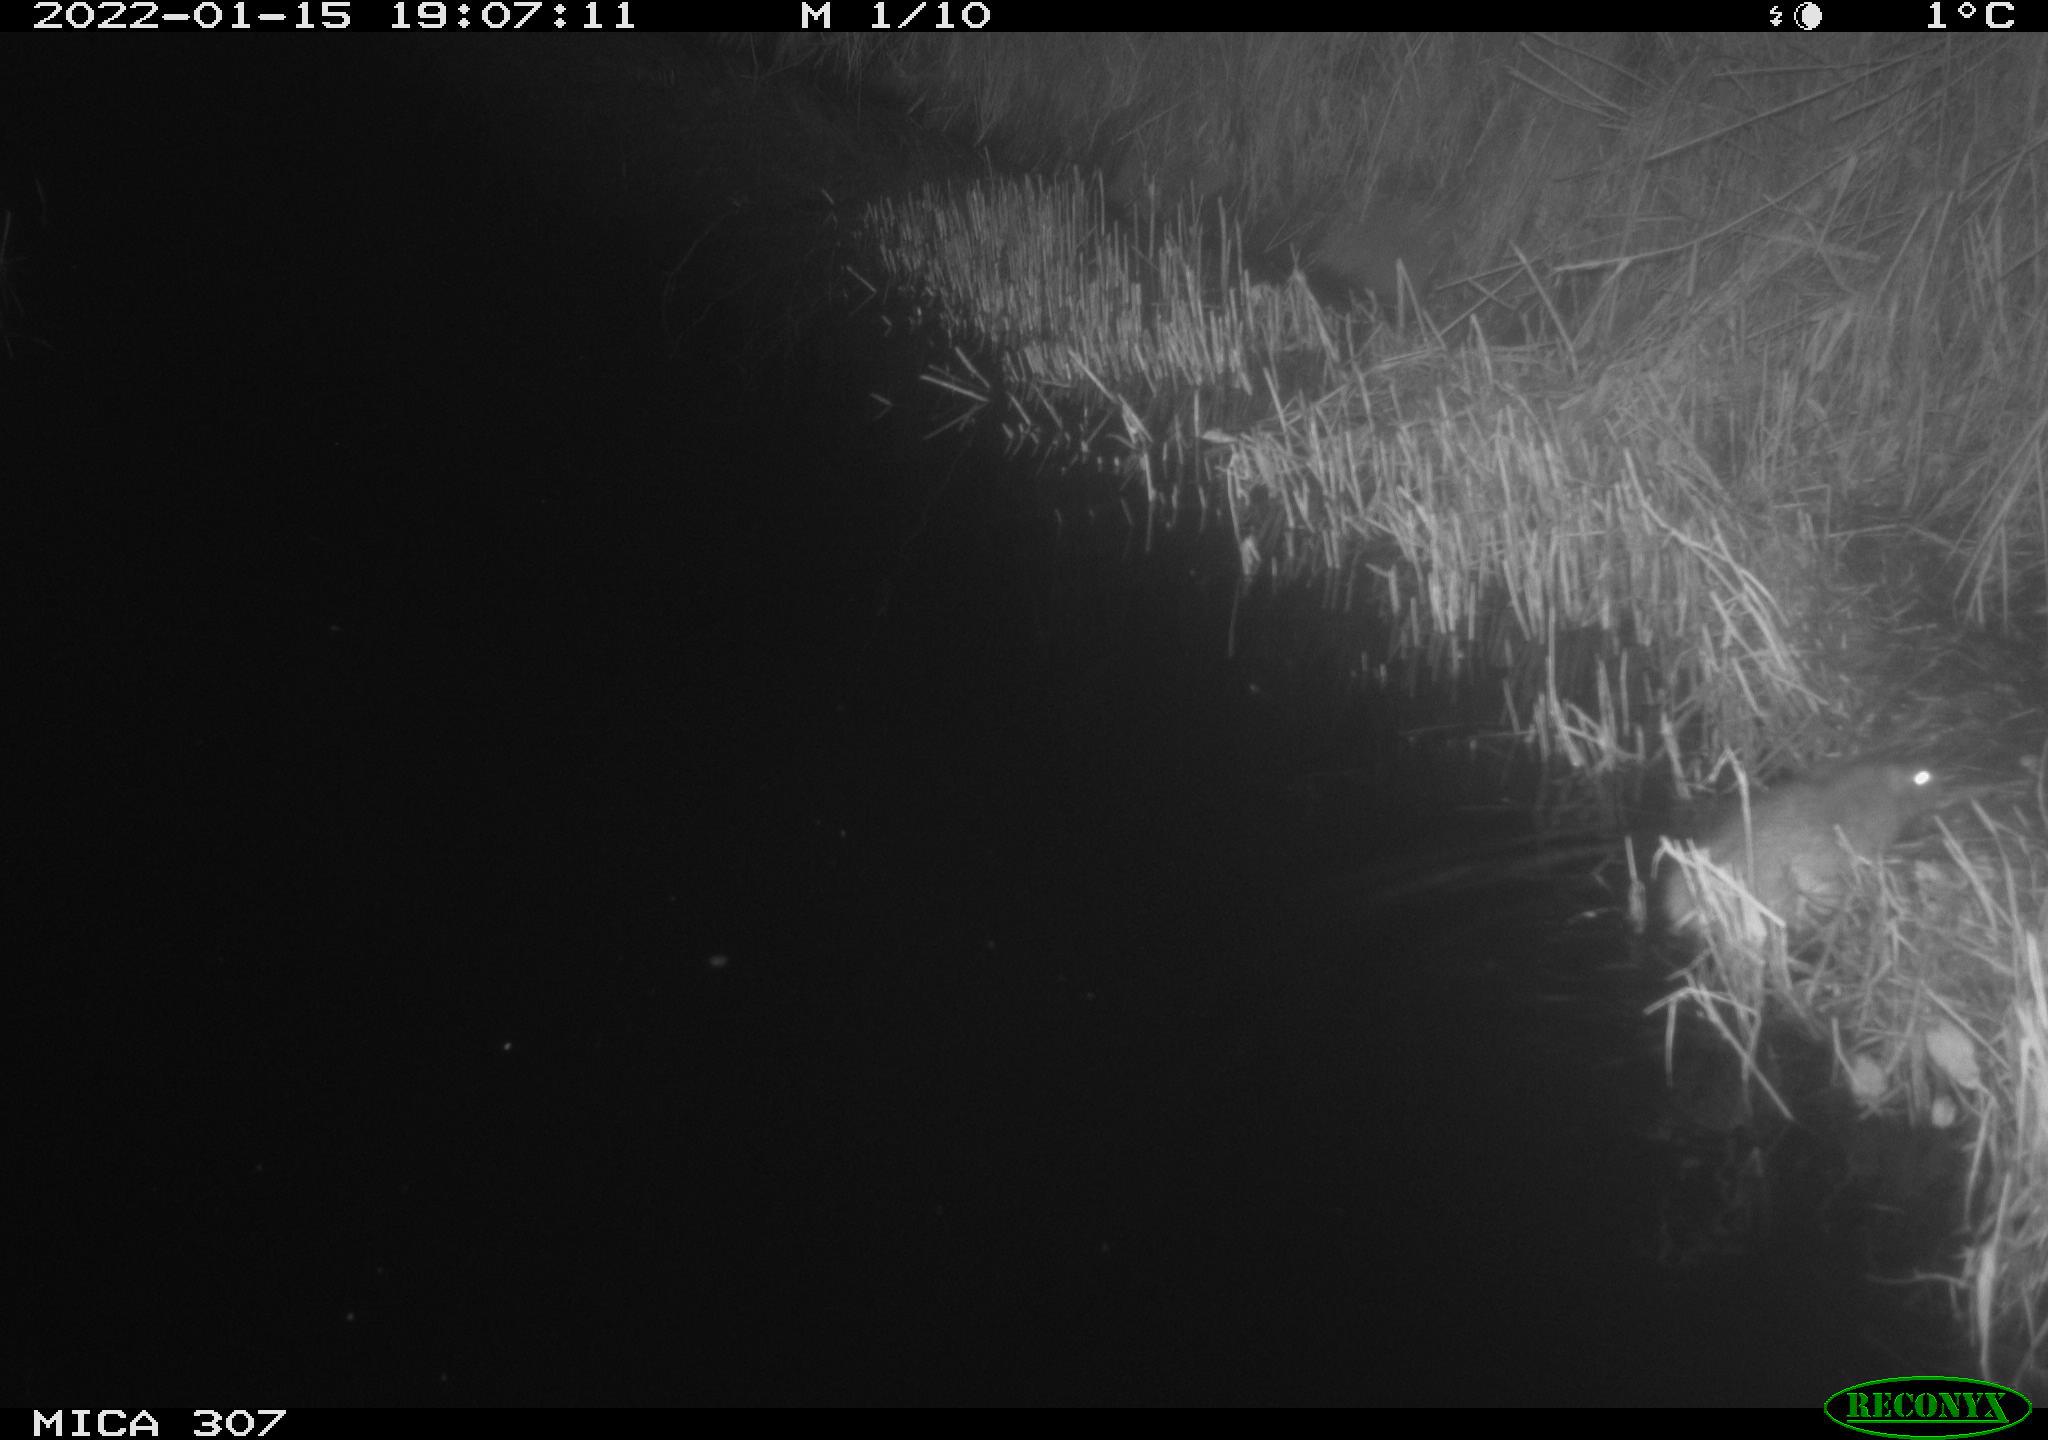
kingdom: Animalia
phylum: Chordata
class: Mammalia
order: Rodentia
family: Muridae
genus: Rattus
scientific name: Rattus norvegicus
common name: Brown rat
